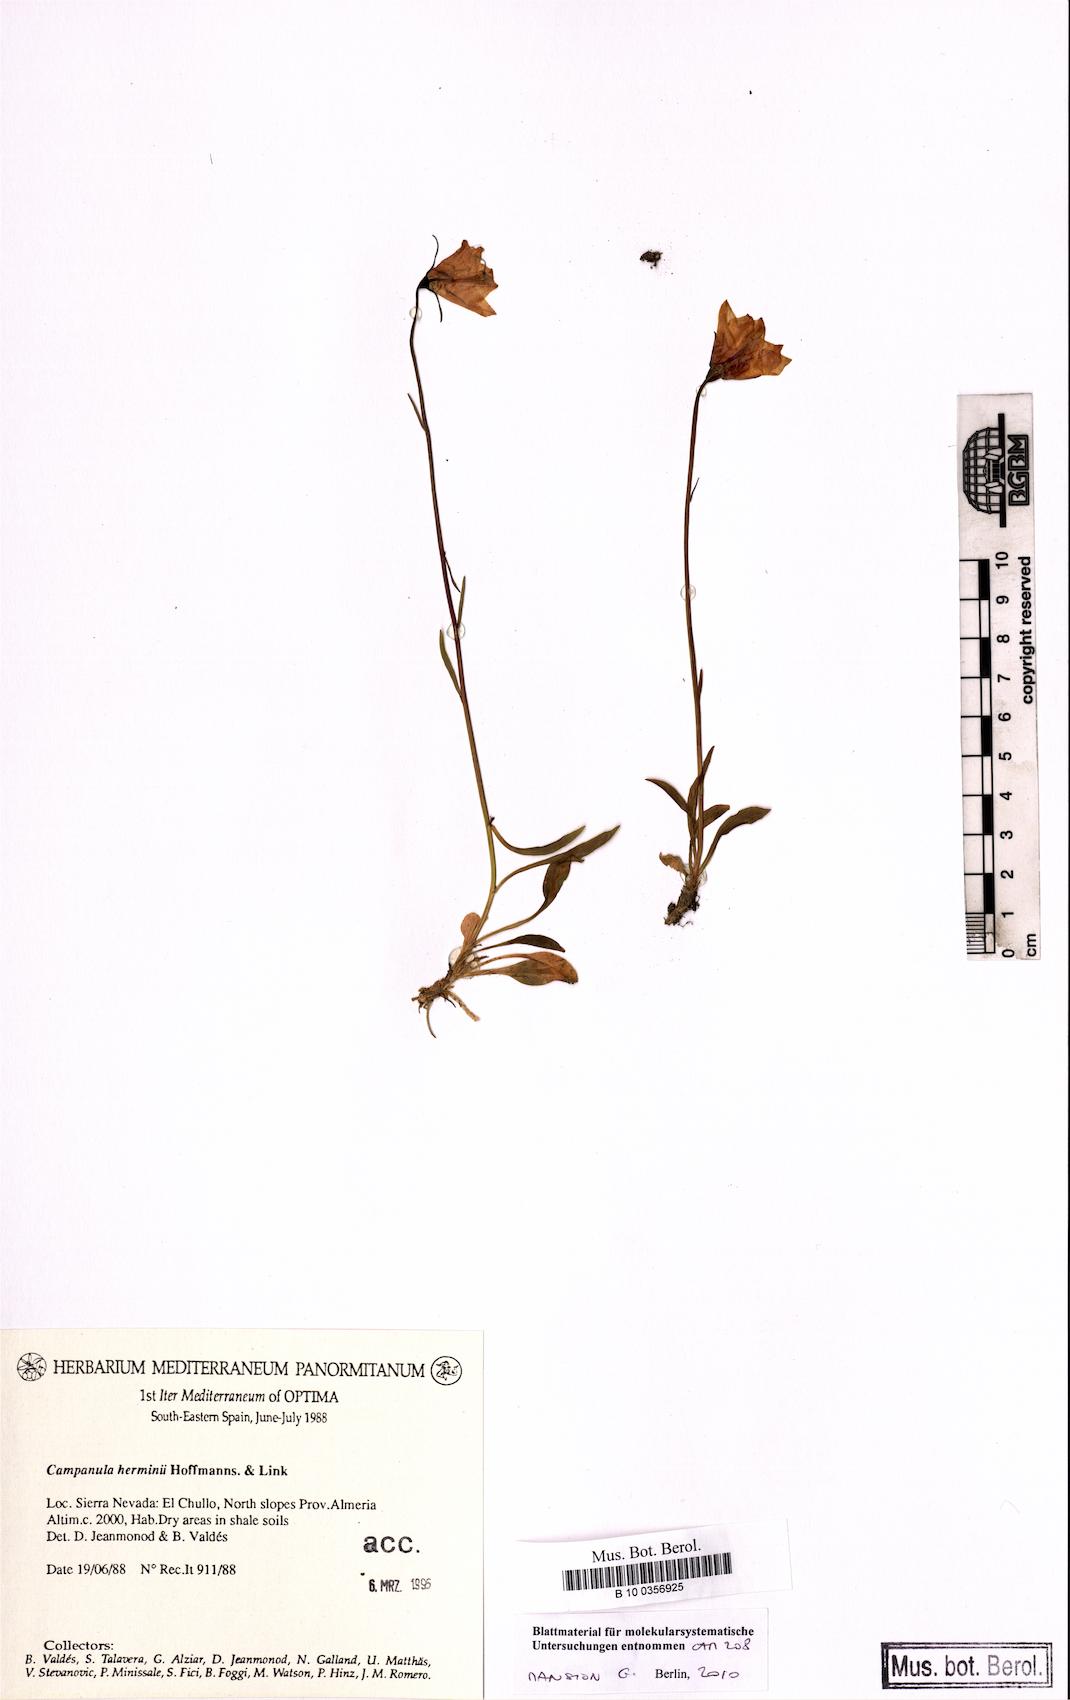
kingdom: Plantae
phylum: Tracheophyta
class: Magnoliopsida
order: Asterales
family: Campanulaceae
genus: Campanula
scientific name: Campanula herminii
